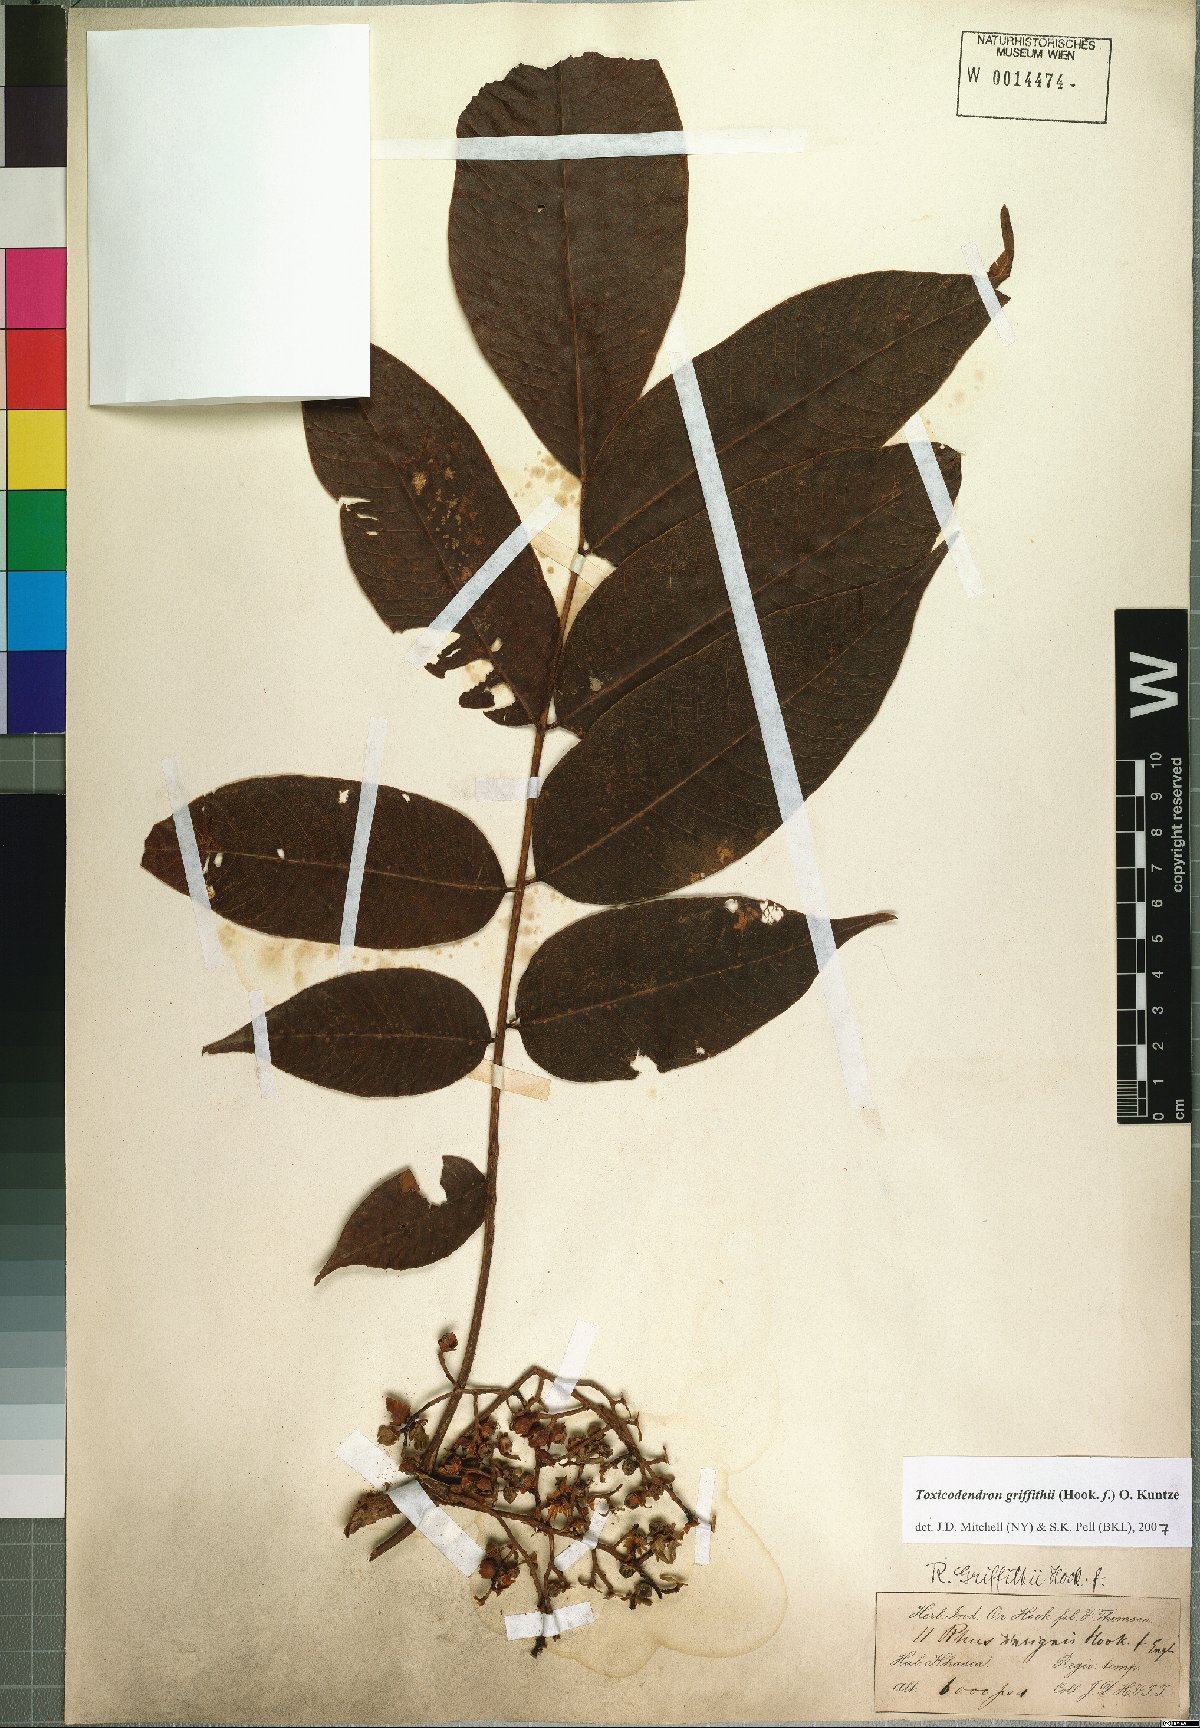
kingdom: Plantae
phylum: Tracheophyta
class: Magnoliopsida
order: Sapindales
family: Anacardiaceae
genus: Toxicodendron
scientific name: Toxicodendron griffithii
